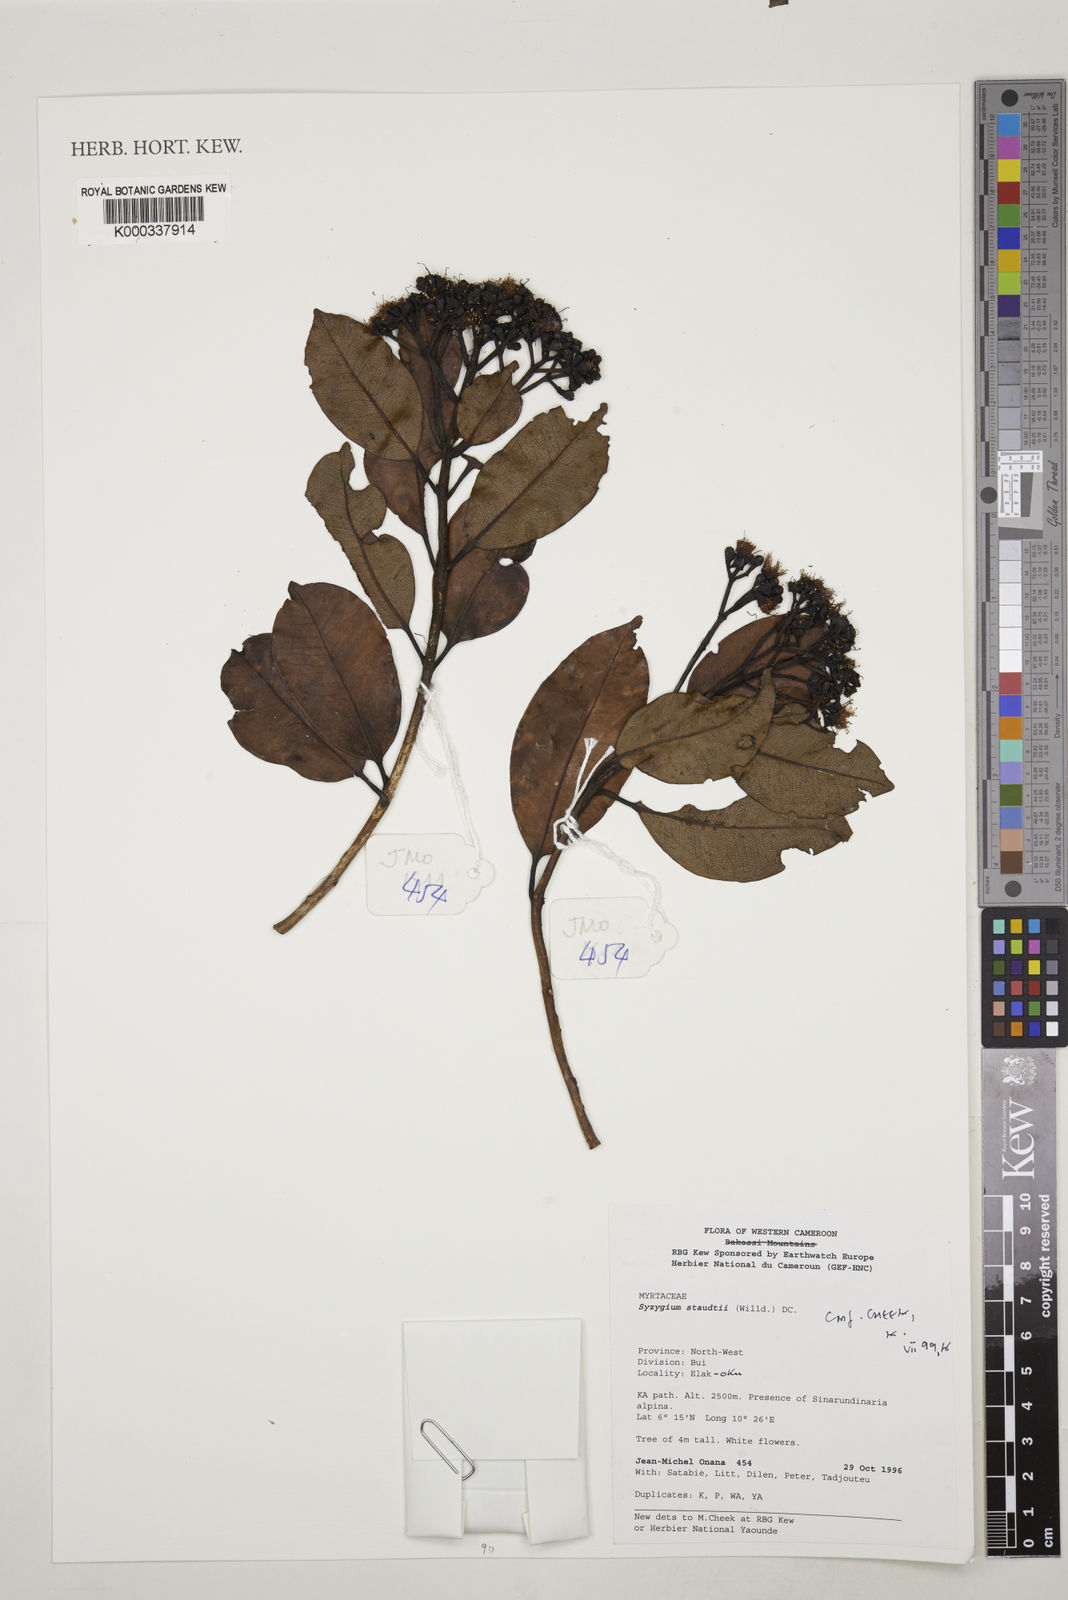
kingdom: Plantae
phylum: Tracheophyta
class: Magnoliopsida
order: Myrtales
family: Myrtaceae
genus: Syzygium
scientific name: Syzygium staudtii
